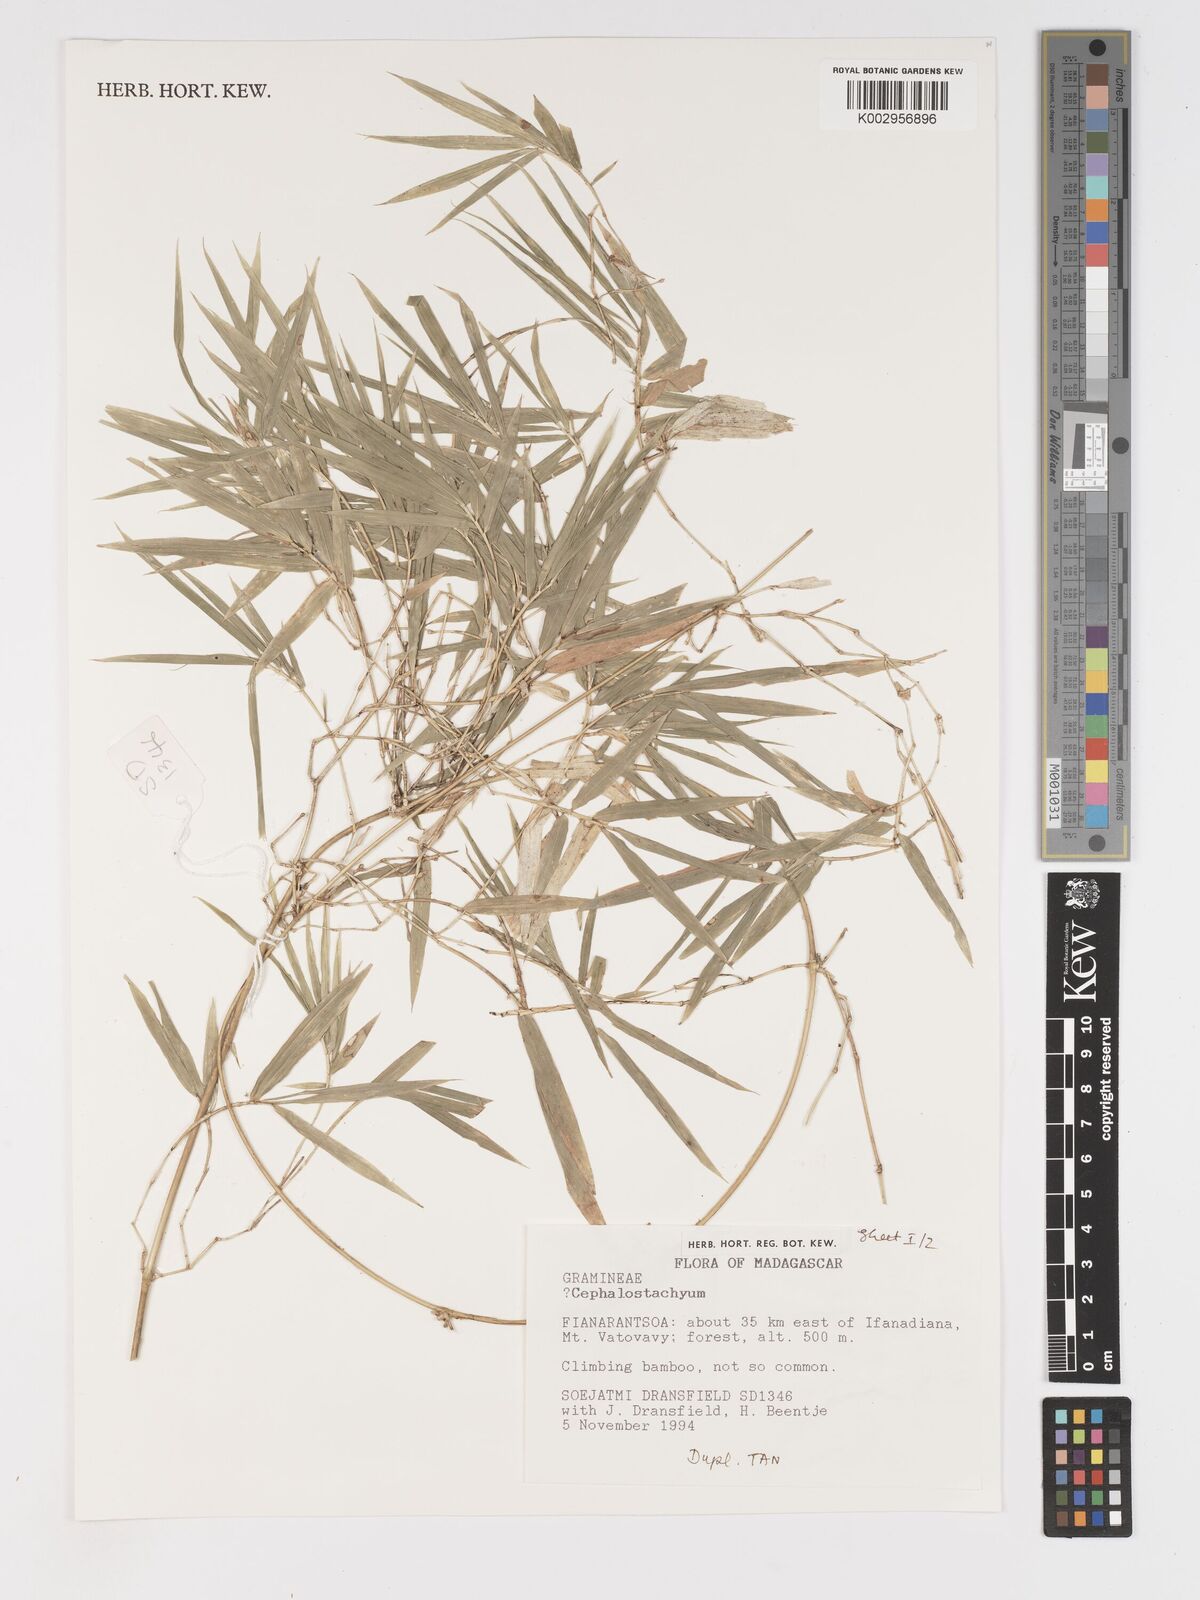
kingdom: Plantae
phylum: Tracheophyta
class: Liliopsida
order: Poales
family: Poaceae
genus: Sirochloa
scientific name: Sirochloa
